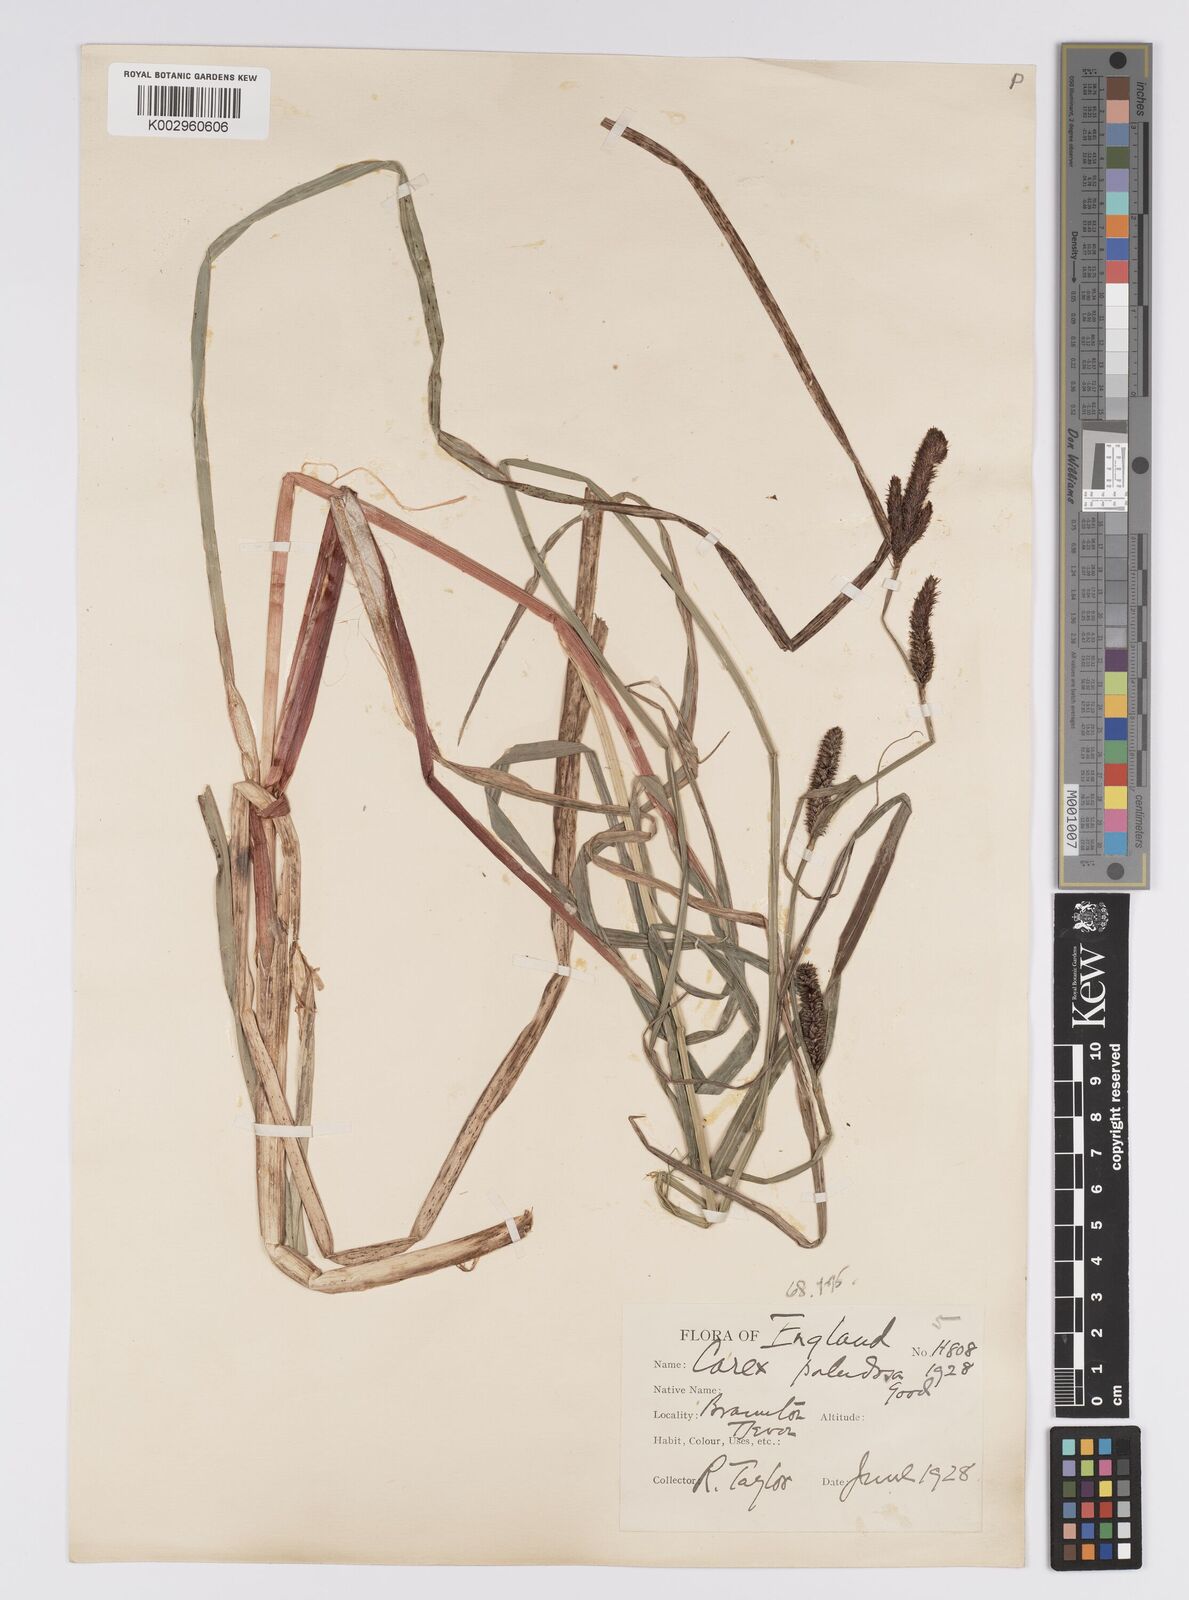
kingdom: Plantae
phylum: Tracheophyta
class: Liliopsida
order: Poales
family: Cyperaceae
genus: Carex
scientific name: Carex acutiformis
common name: Lesser pond-sedge
